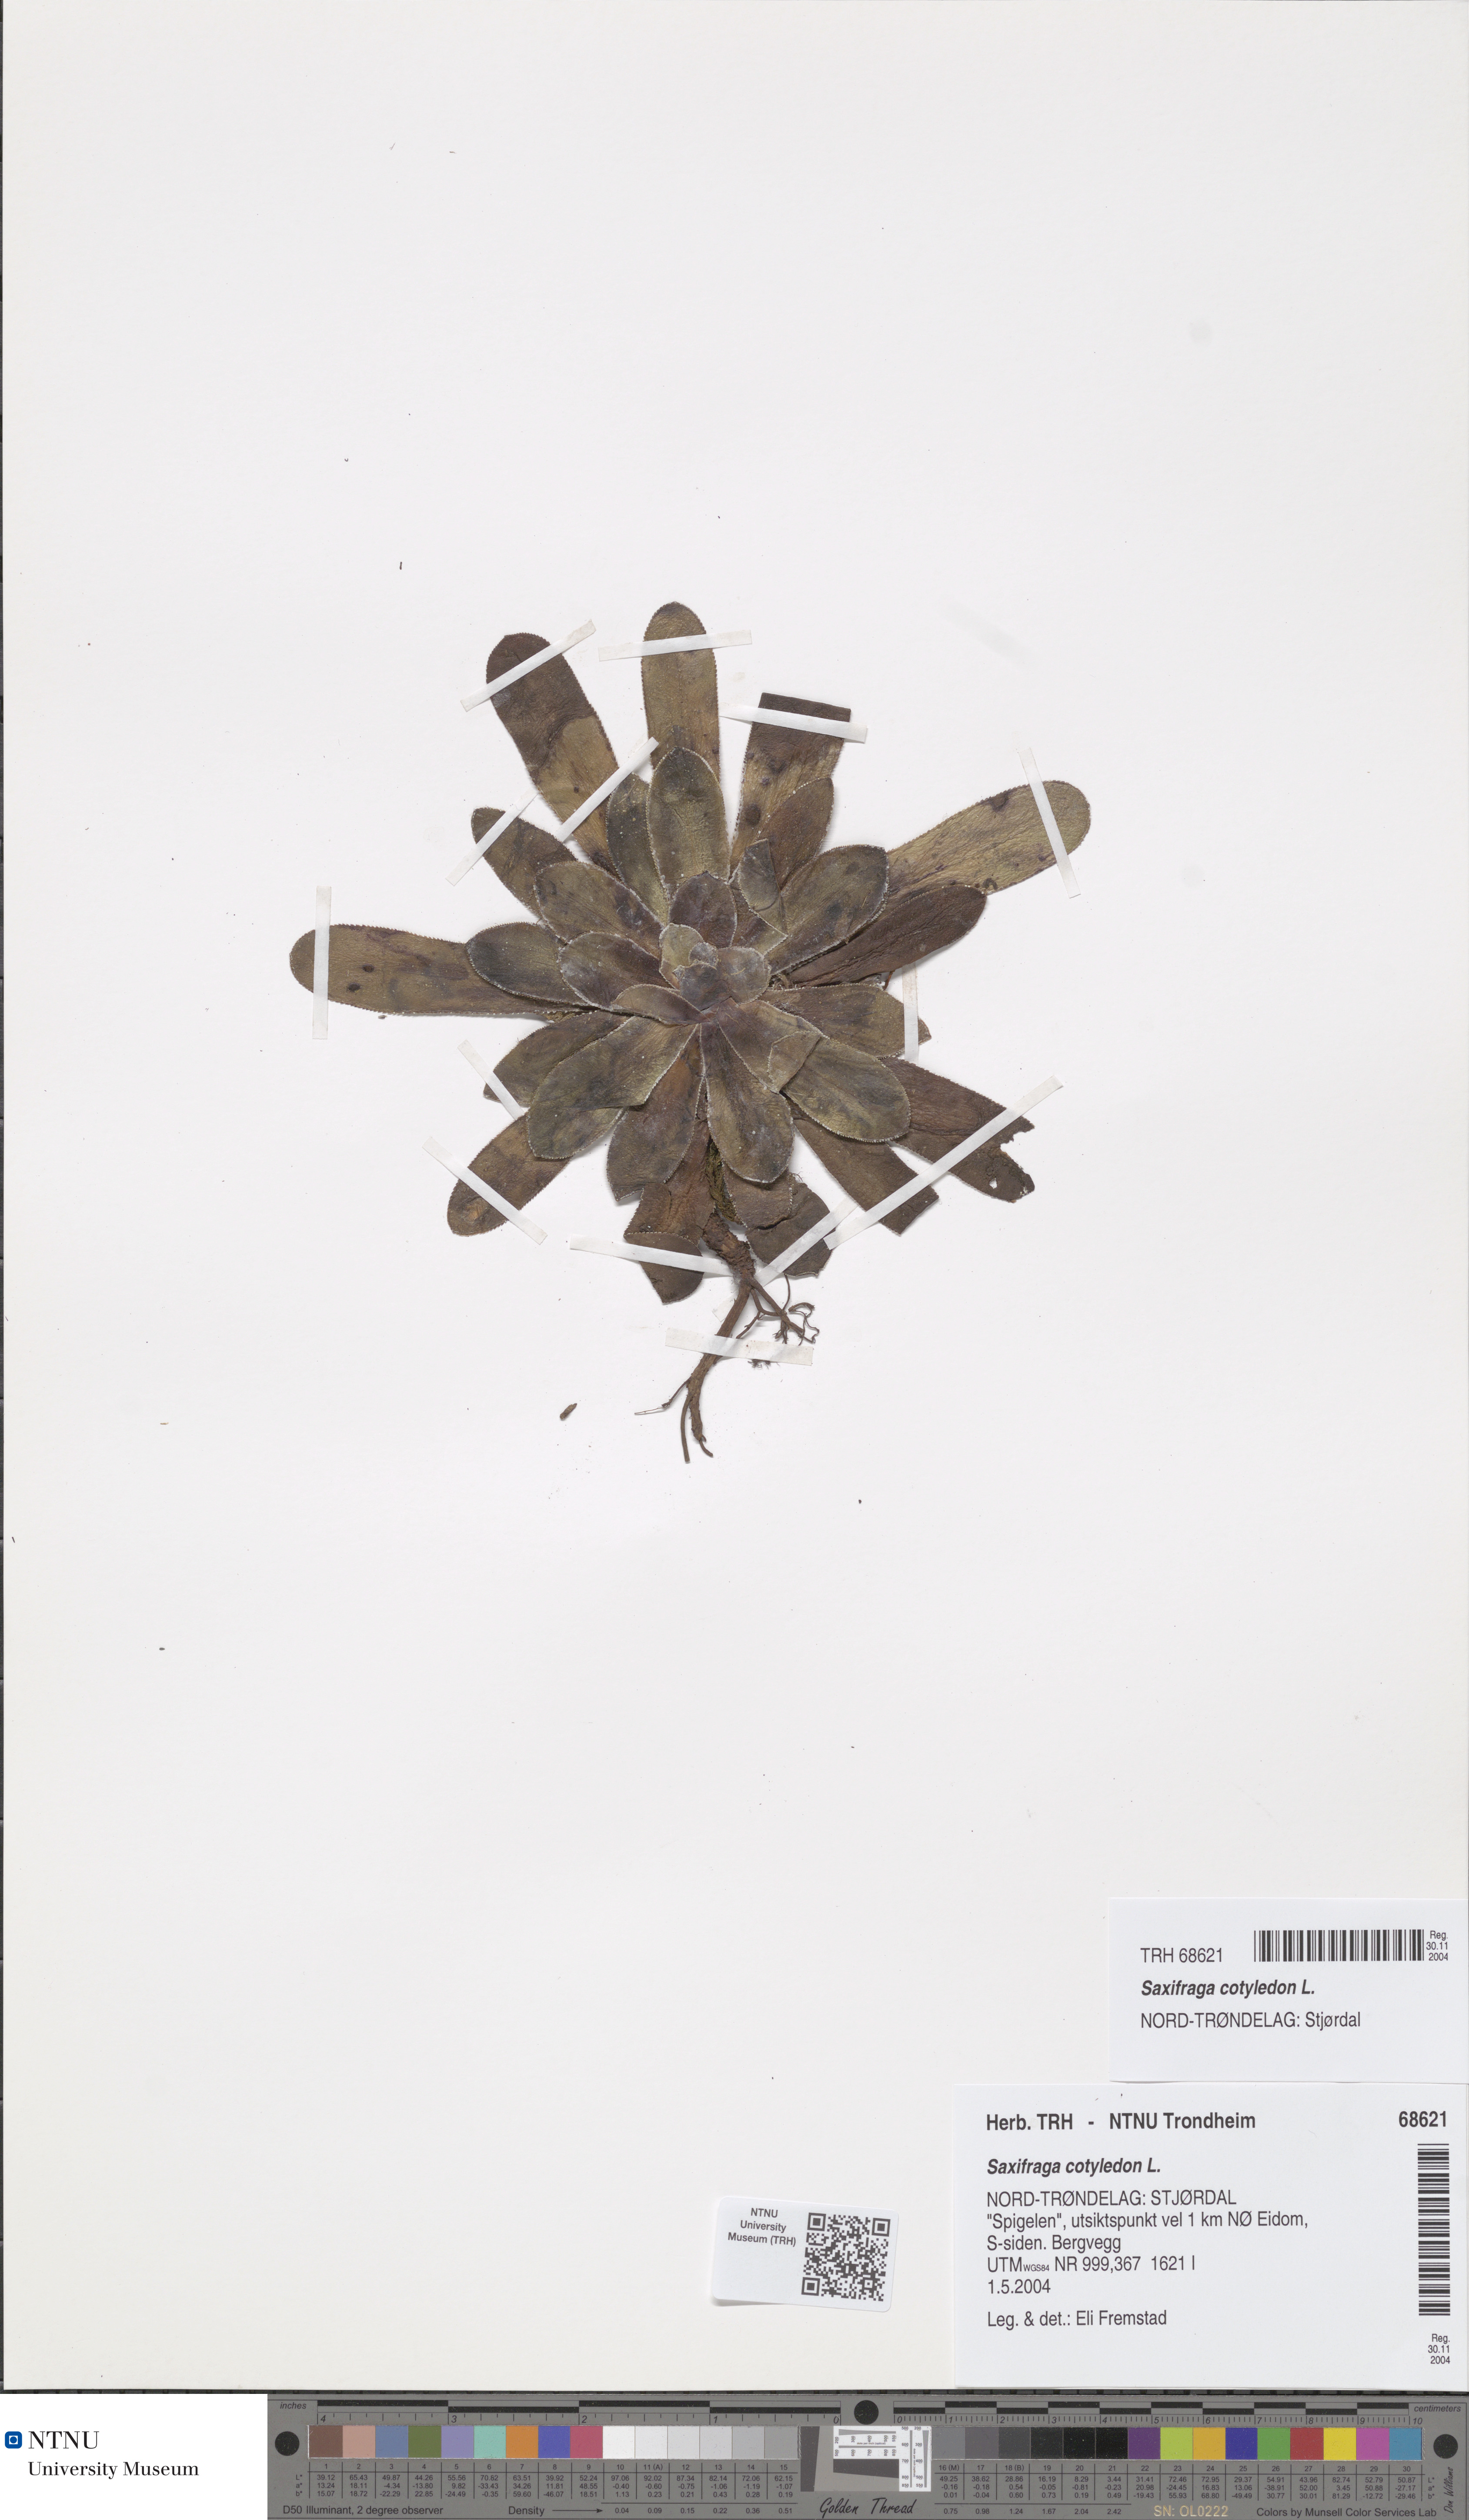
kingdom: Plantae
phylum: Tracheophyta
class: Magnoliopsida
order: Saxifragales
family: Saxifragaceae
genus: Saxifraga
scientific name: Saxifraga cotyledon
